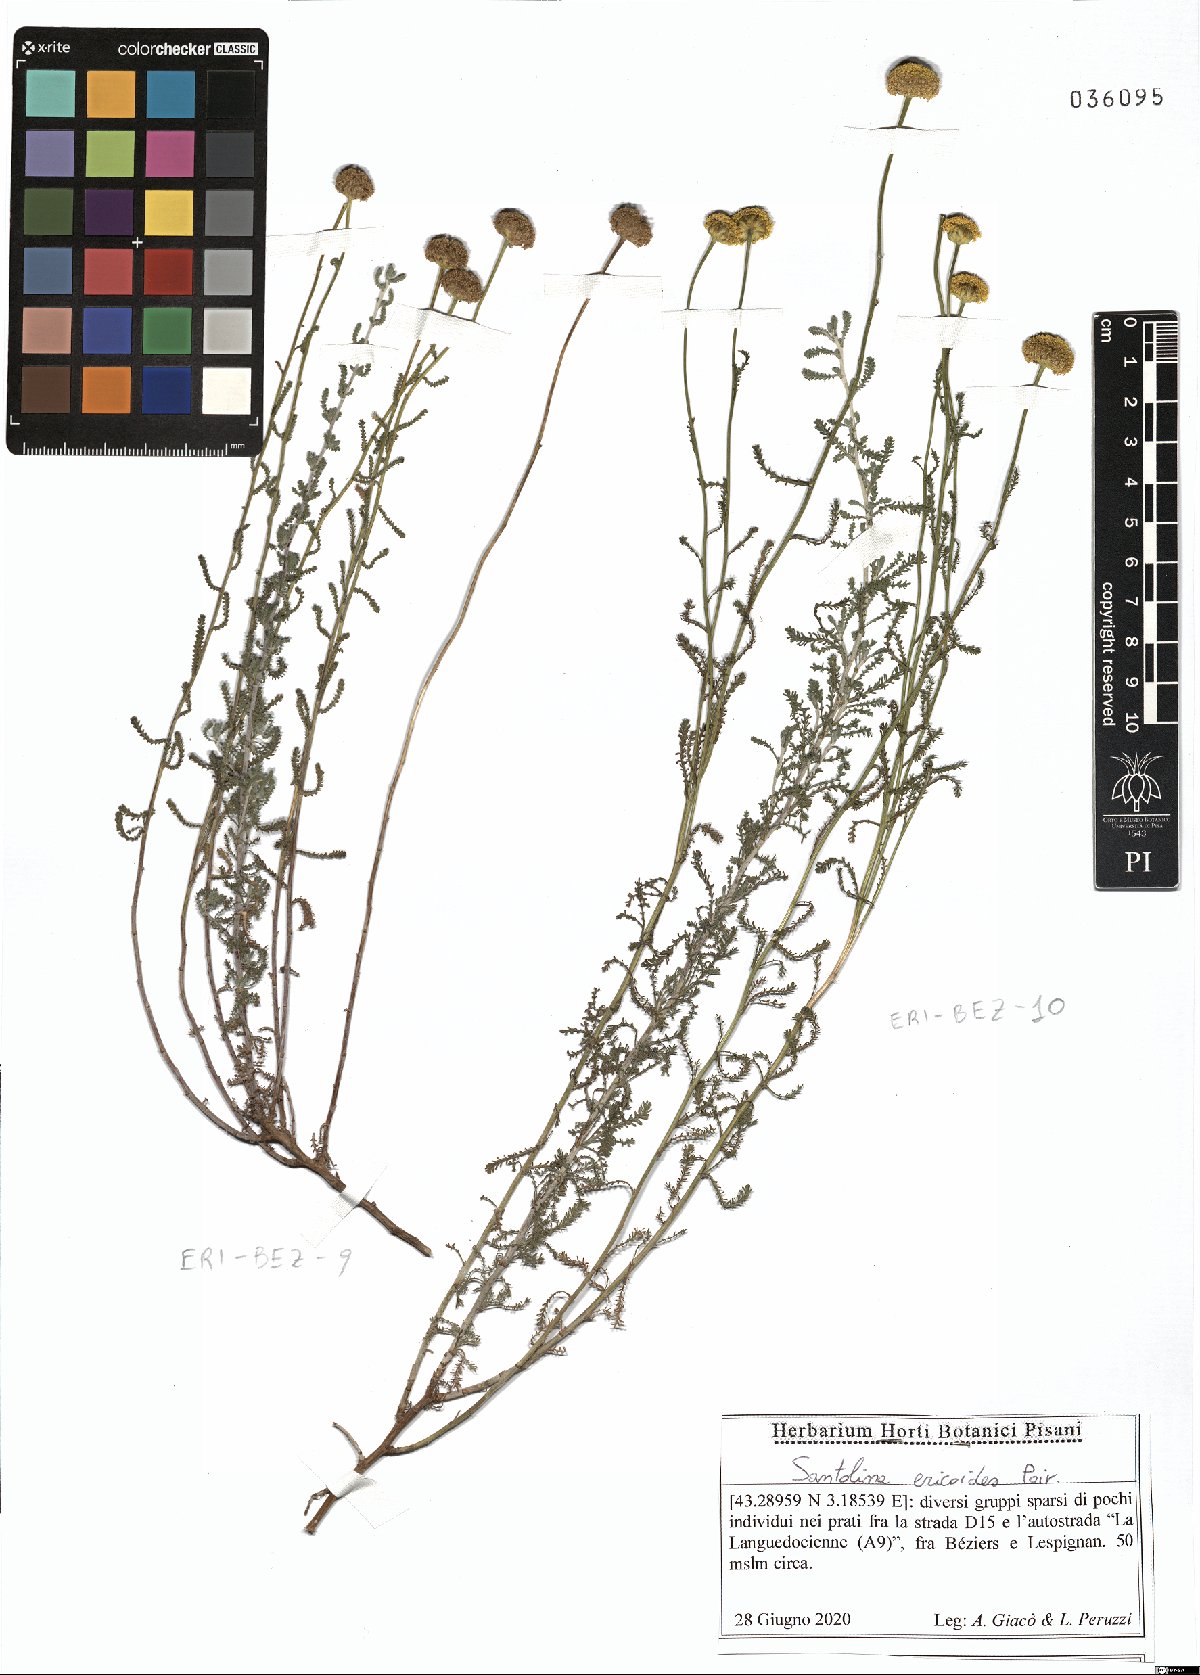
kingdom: Plantae
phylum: Tracheophyta
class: Magnoliopsida
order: Asterales
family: Asteraceae
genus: Santolina
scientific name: Santolina ericoides
